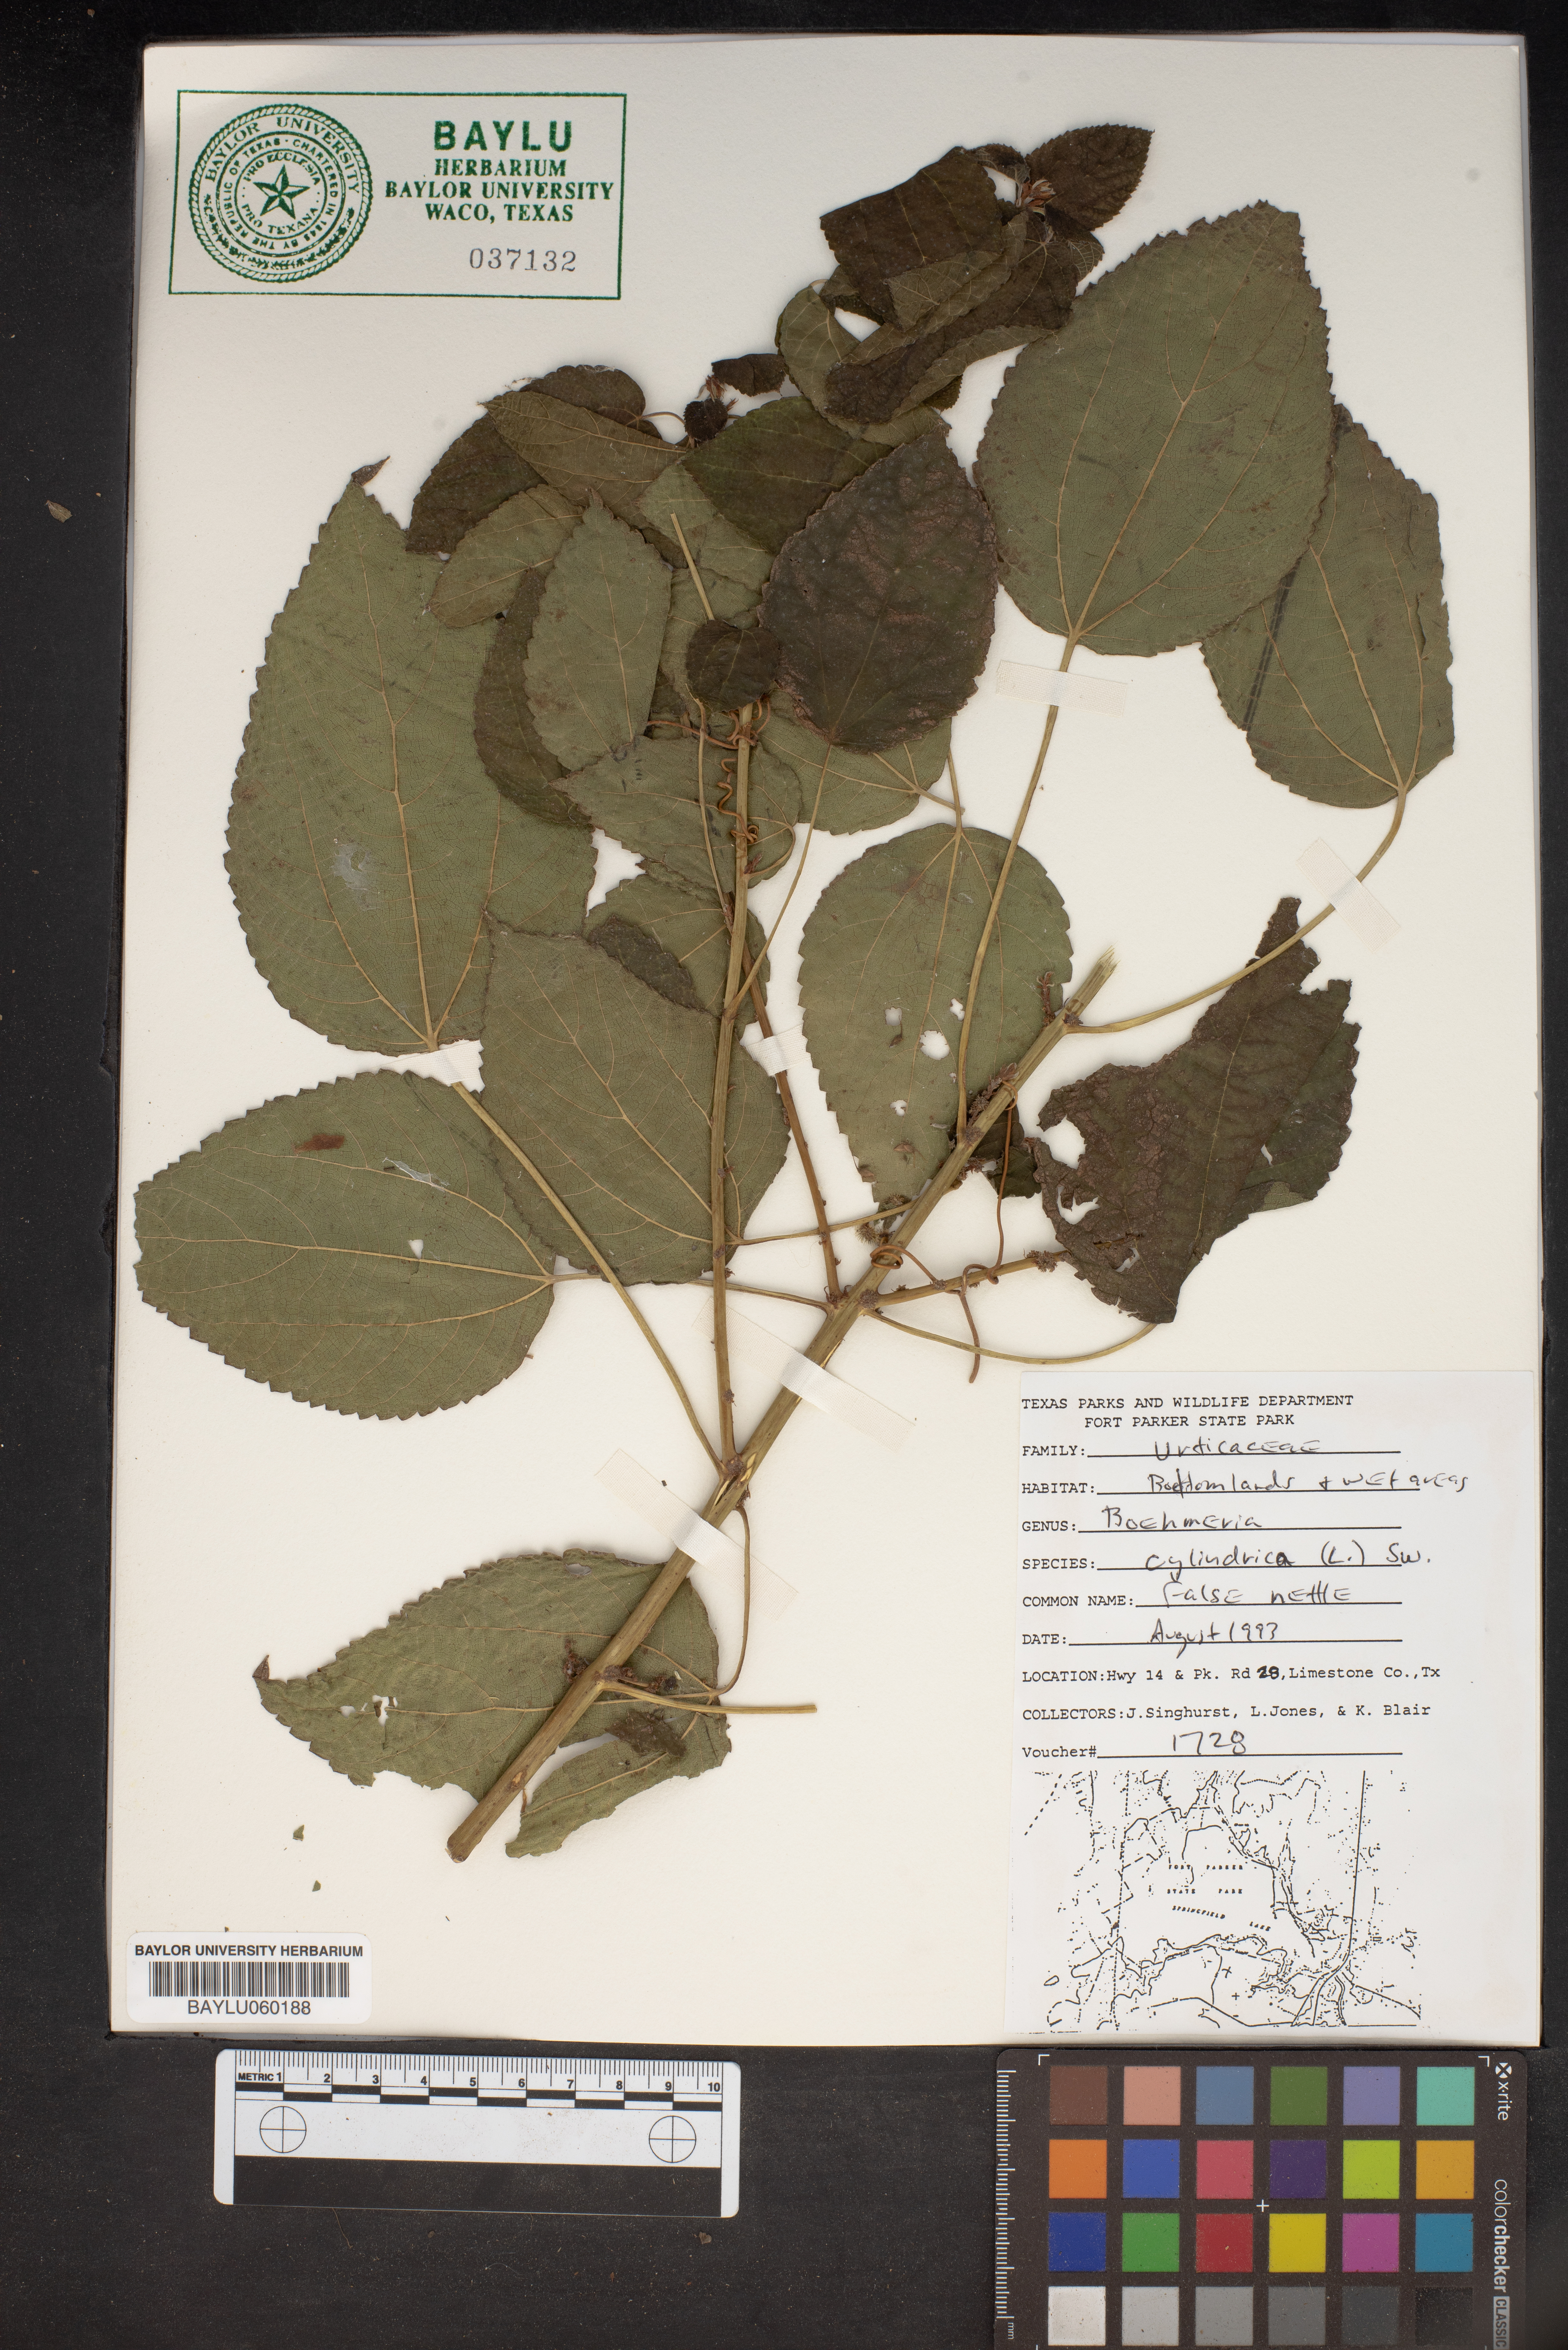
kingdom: Plantae
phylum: Tracheophyta
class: Magnoliopsida
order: Rosales
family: Urticaceae
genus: Boehmeria
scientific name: Boehmeria cylindrica
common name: Bog-hemp
